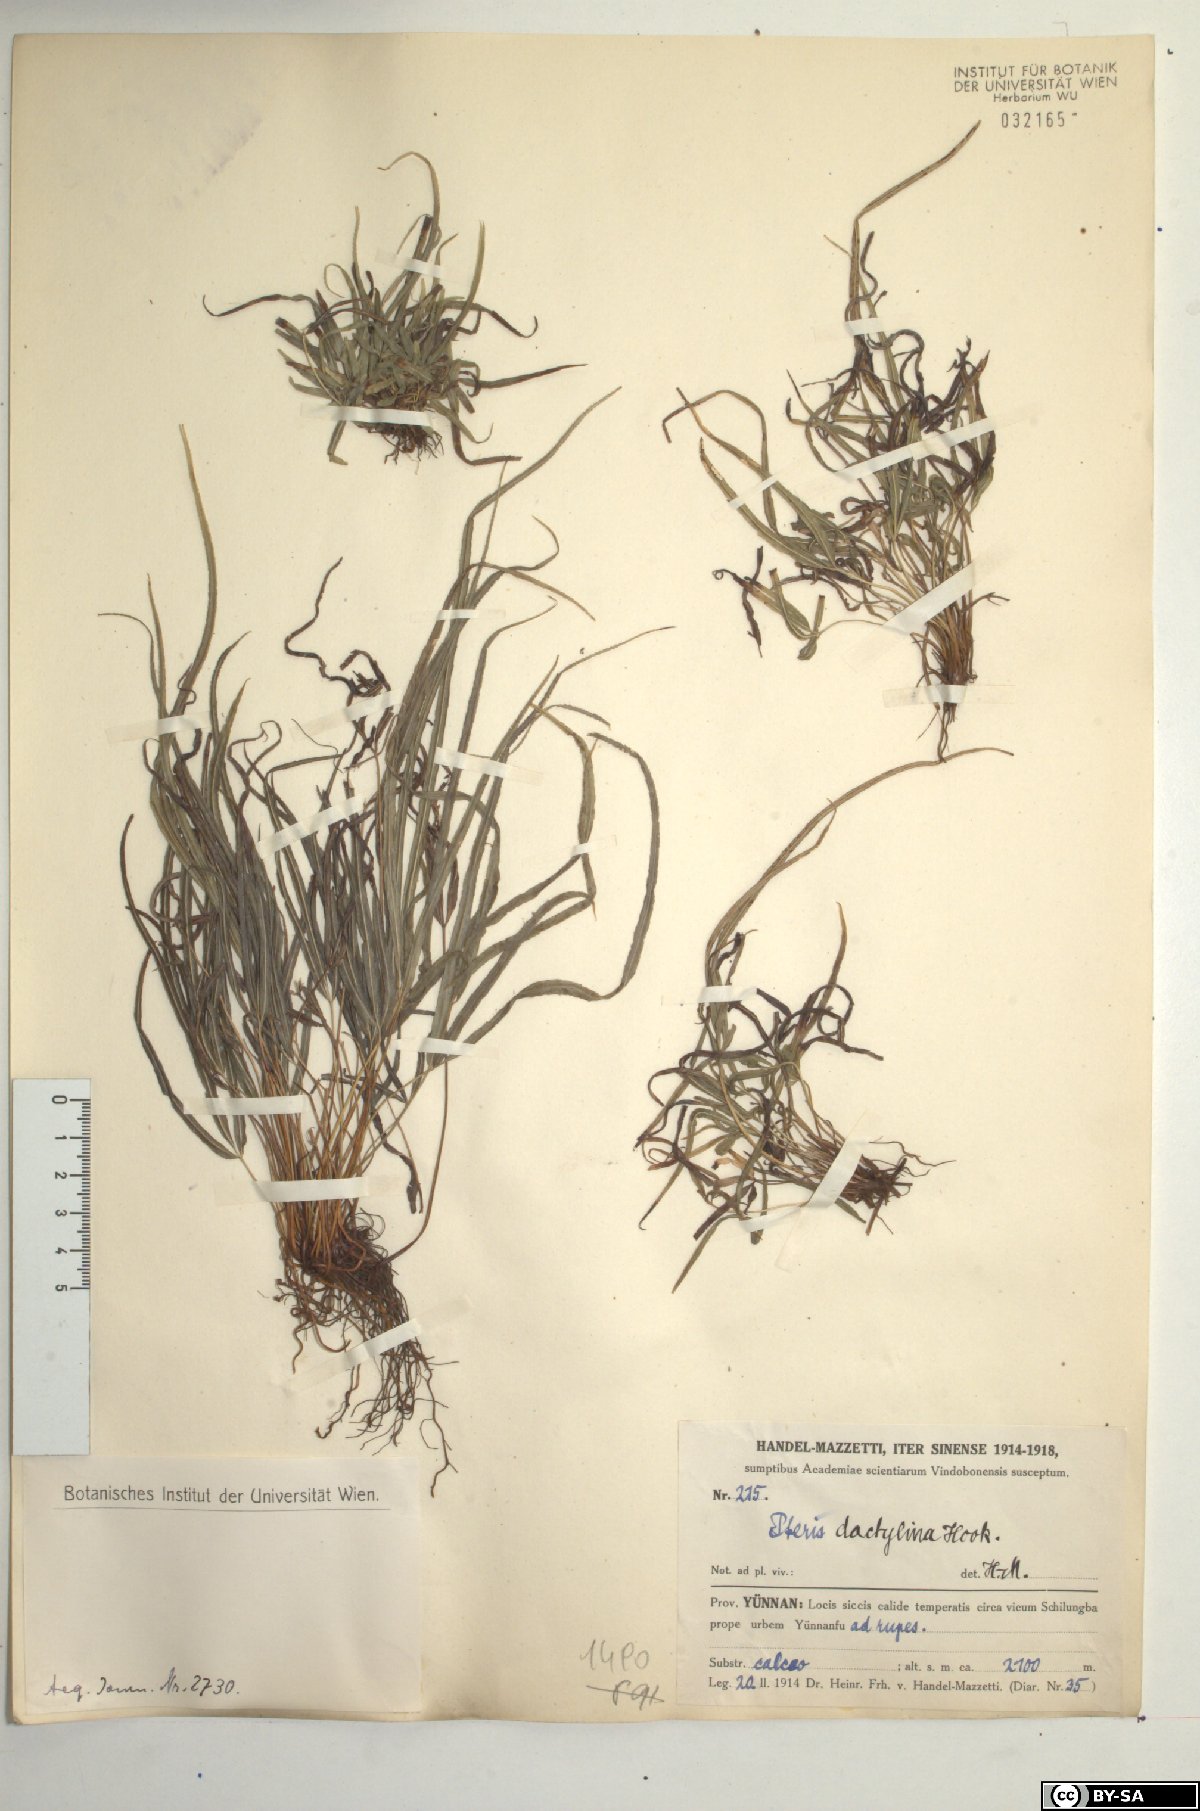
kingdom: Plantae
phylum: Tracheophyta
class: Polypodiopsida
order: Polypodiales
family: Pteridaceae
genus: Pteris
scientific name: Pteris dactylina
